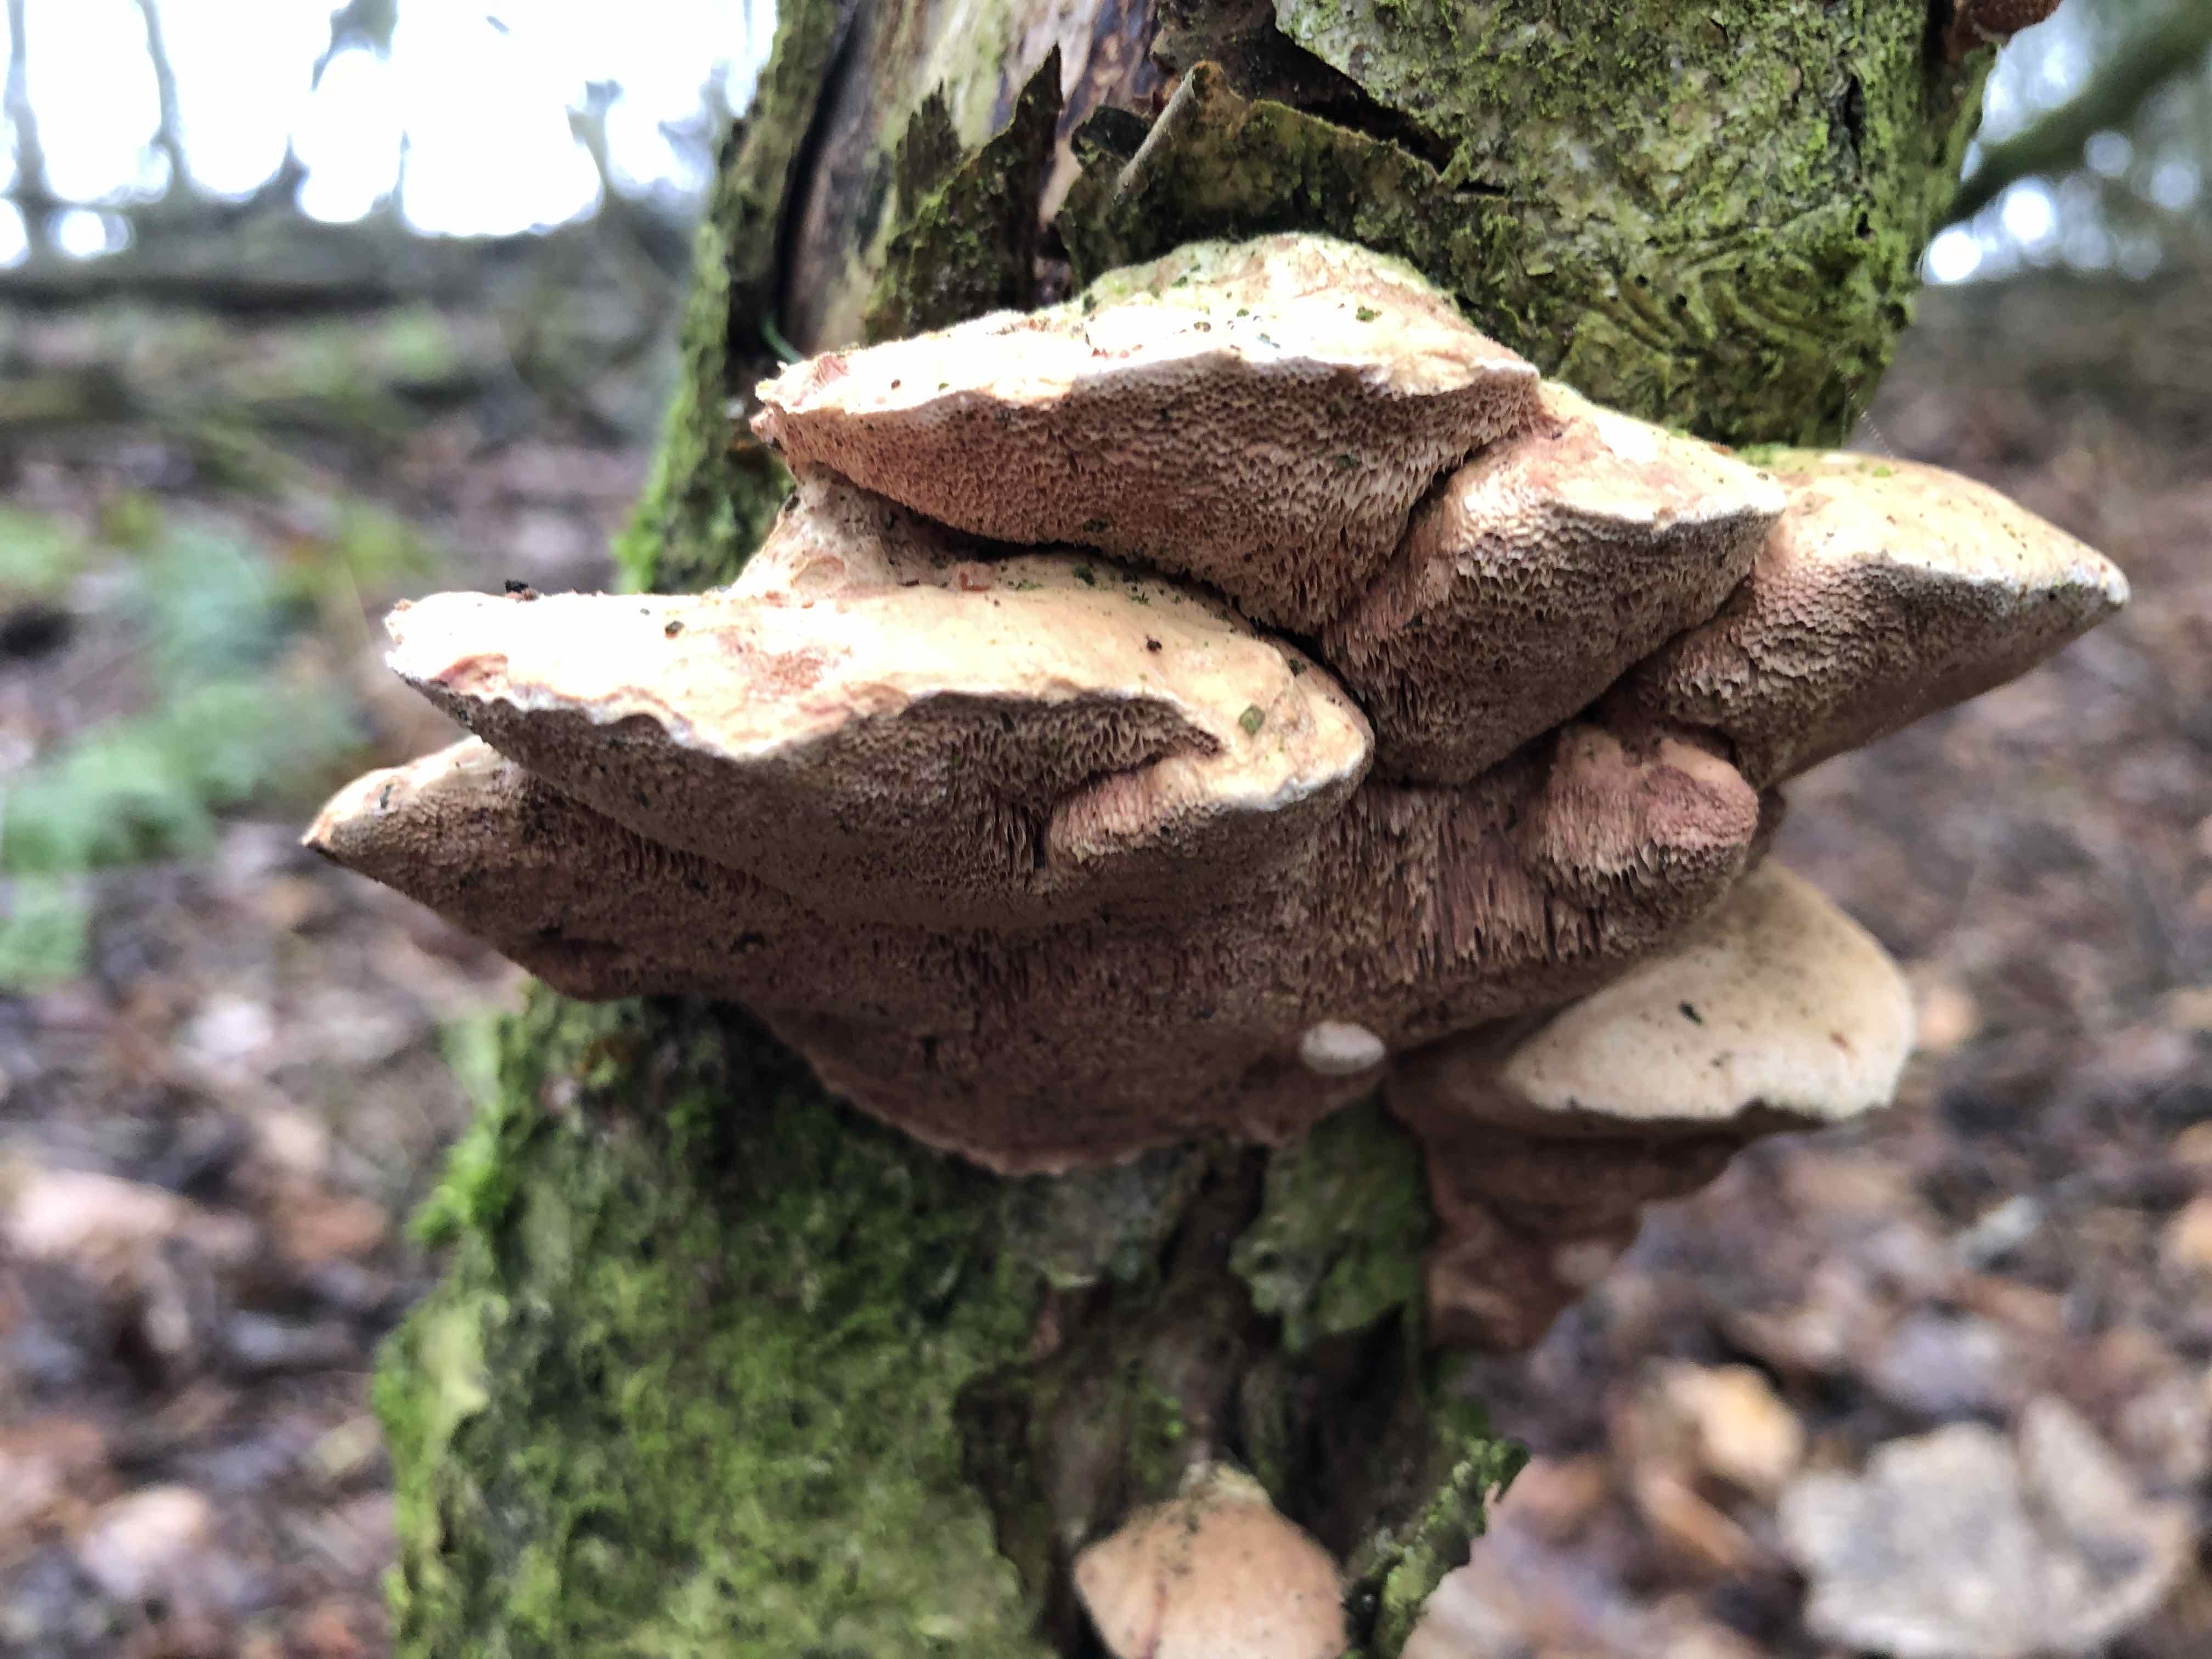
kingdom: Fungi
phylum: Basidiomycota
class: Agaricomycetes
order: Polyporales
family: Phanerochaetaceae
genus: Hapalopilus
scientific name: Hapalopilus rutilans
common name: rødlig okkerporesvamp
